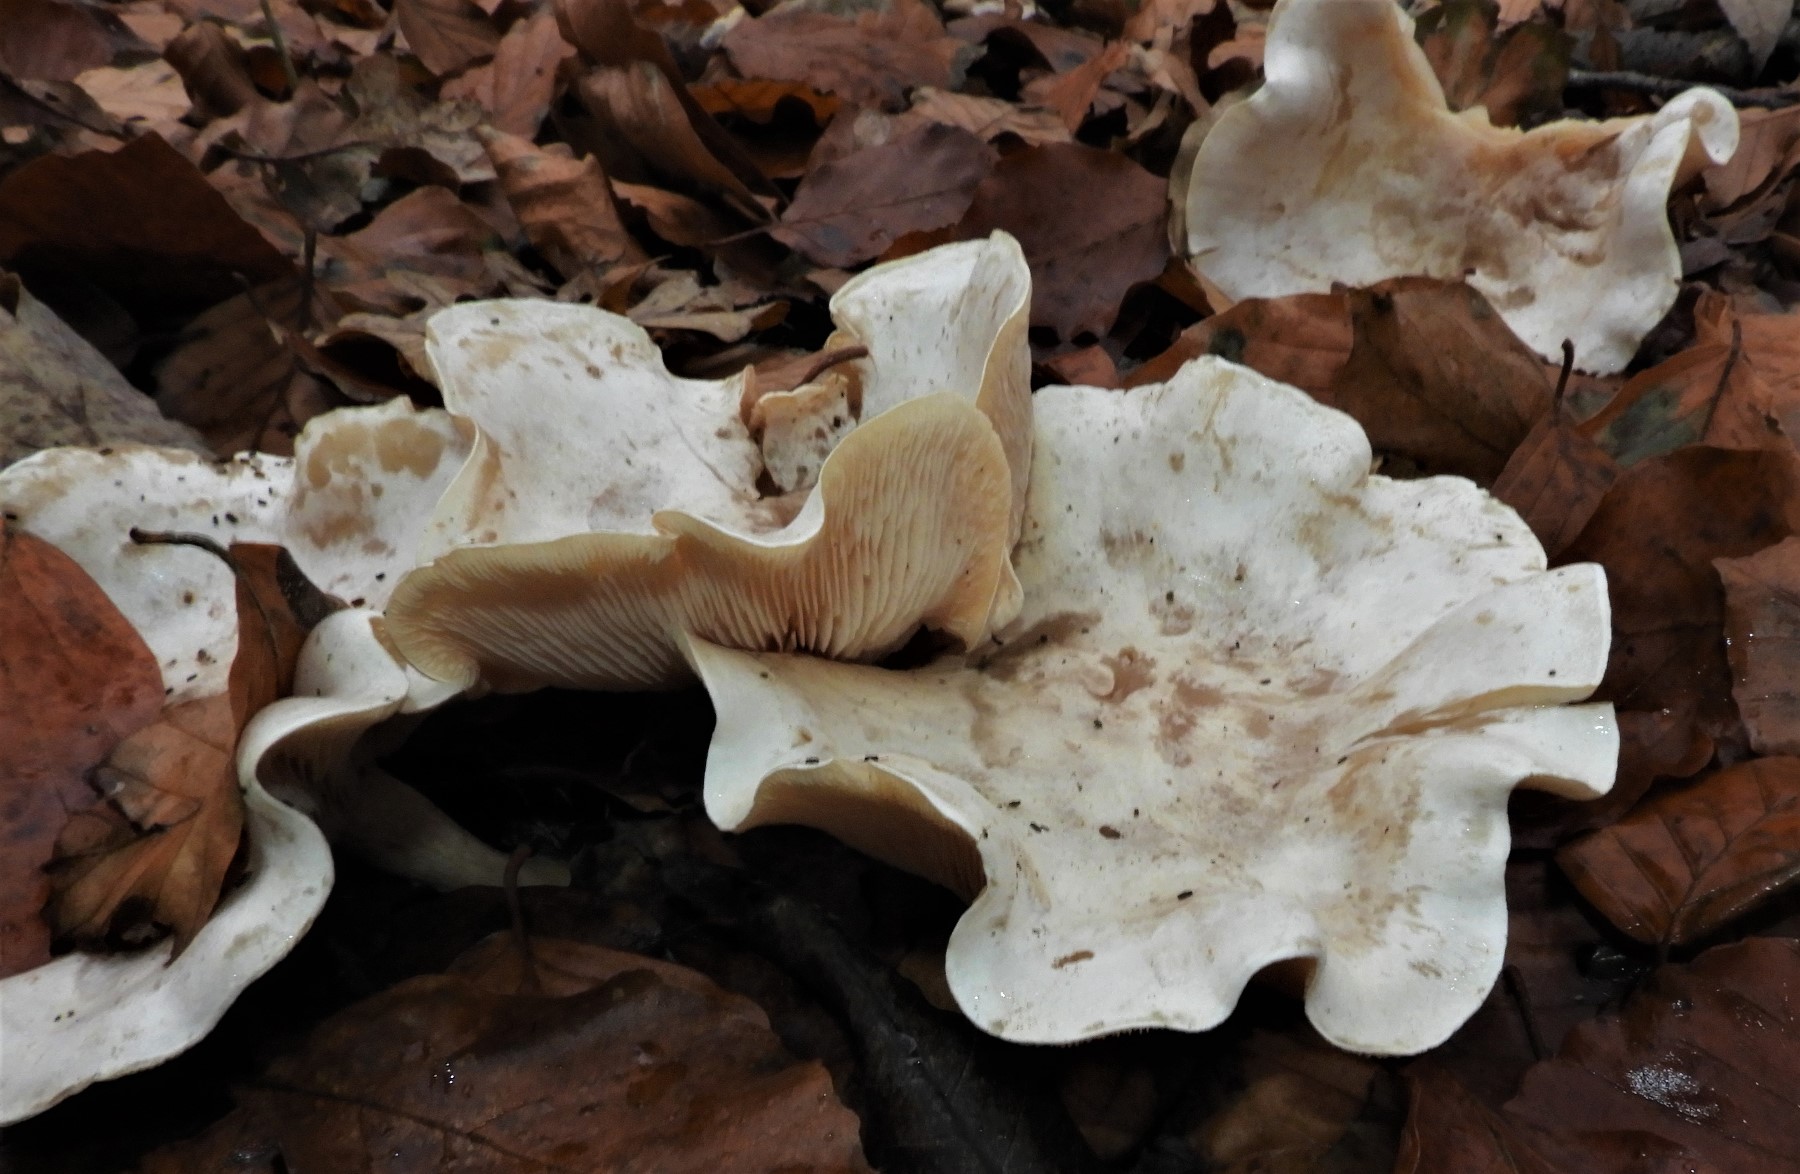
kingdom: Fungi
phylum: Basidiomycota
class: Agaricomycetes
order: Agaricales
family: Tricholomataceae
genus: Clitocybe
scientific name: Clitocybe phyllophila
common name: løv-tragthat
